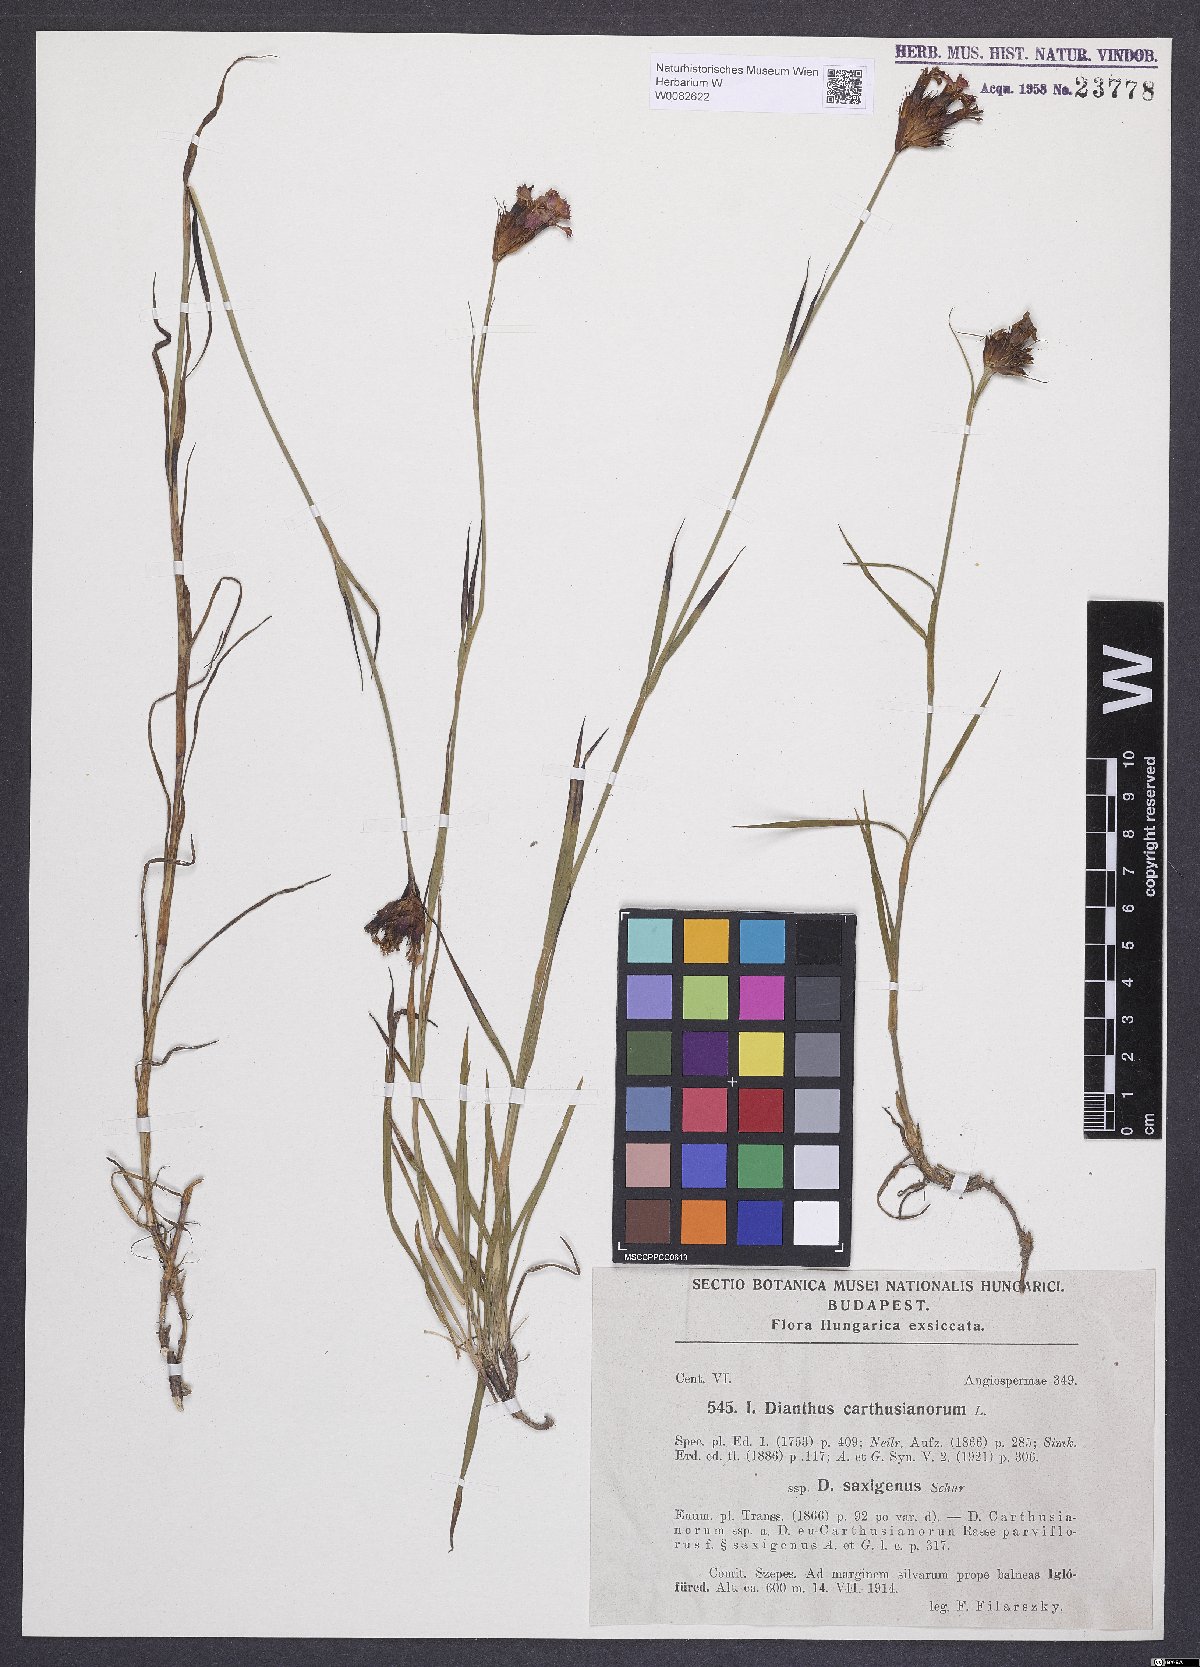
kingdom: Plantae
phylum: Tracheophyta
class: Magnoliopsida
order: Caryophyllales
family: Caryophyllaceae
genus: Dianthus
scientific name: Dianthus carthusianorum
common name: Carthusian pink
